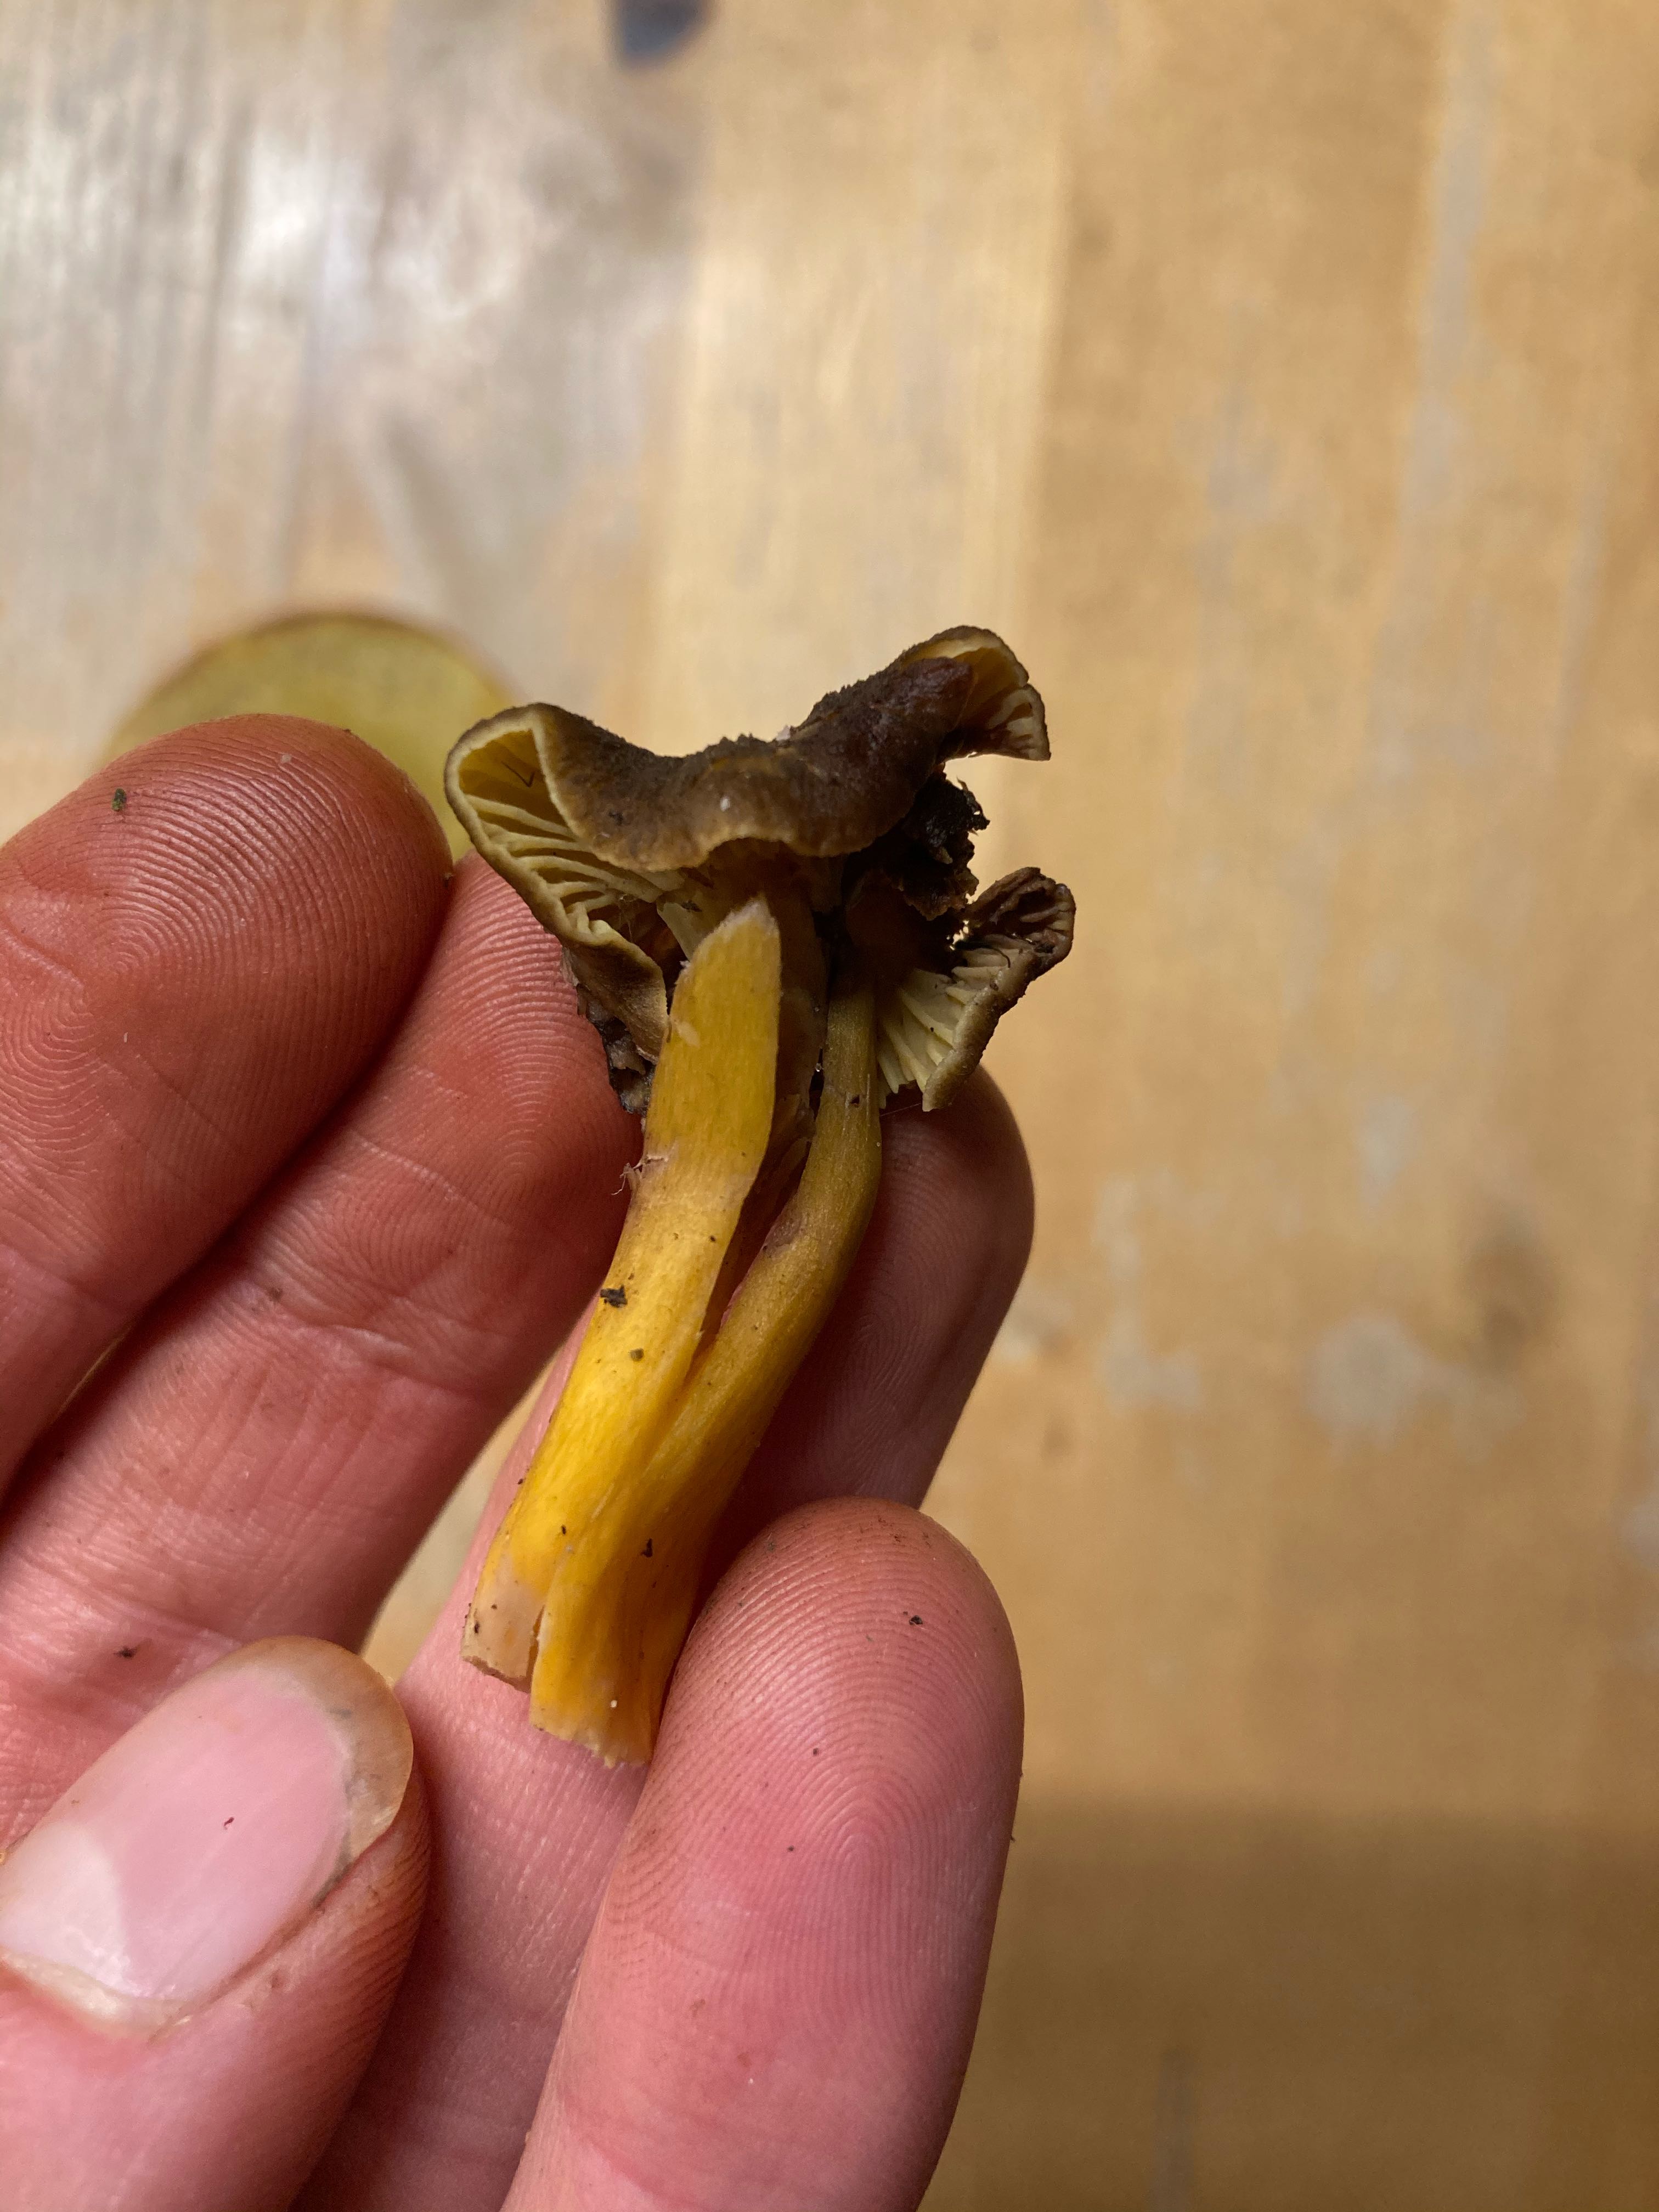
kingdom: Fungi
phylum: Basidiomycota
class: Agaricomycetes
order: Cantharellales
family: Hydnaceae
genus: Craterellus
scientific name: Craterellus tubaeformis
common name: tragt-kantarel
